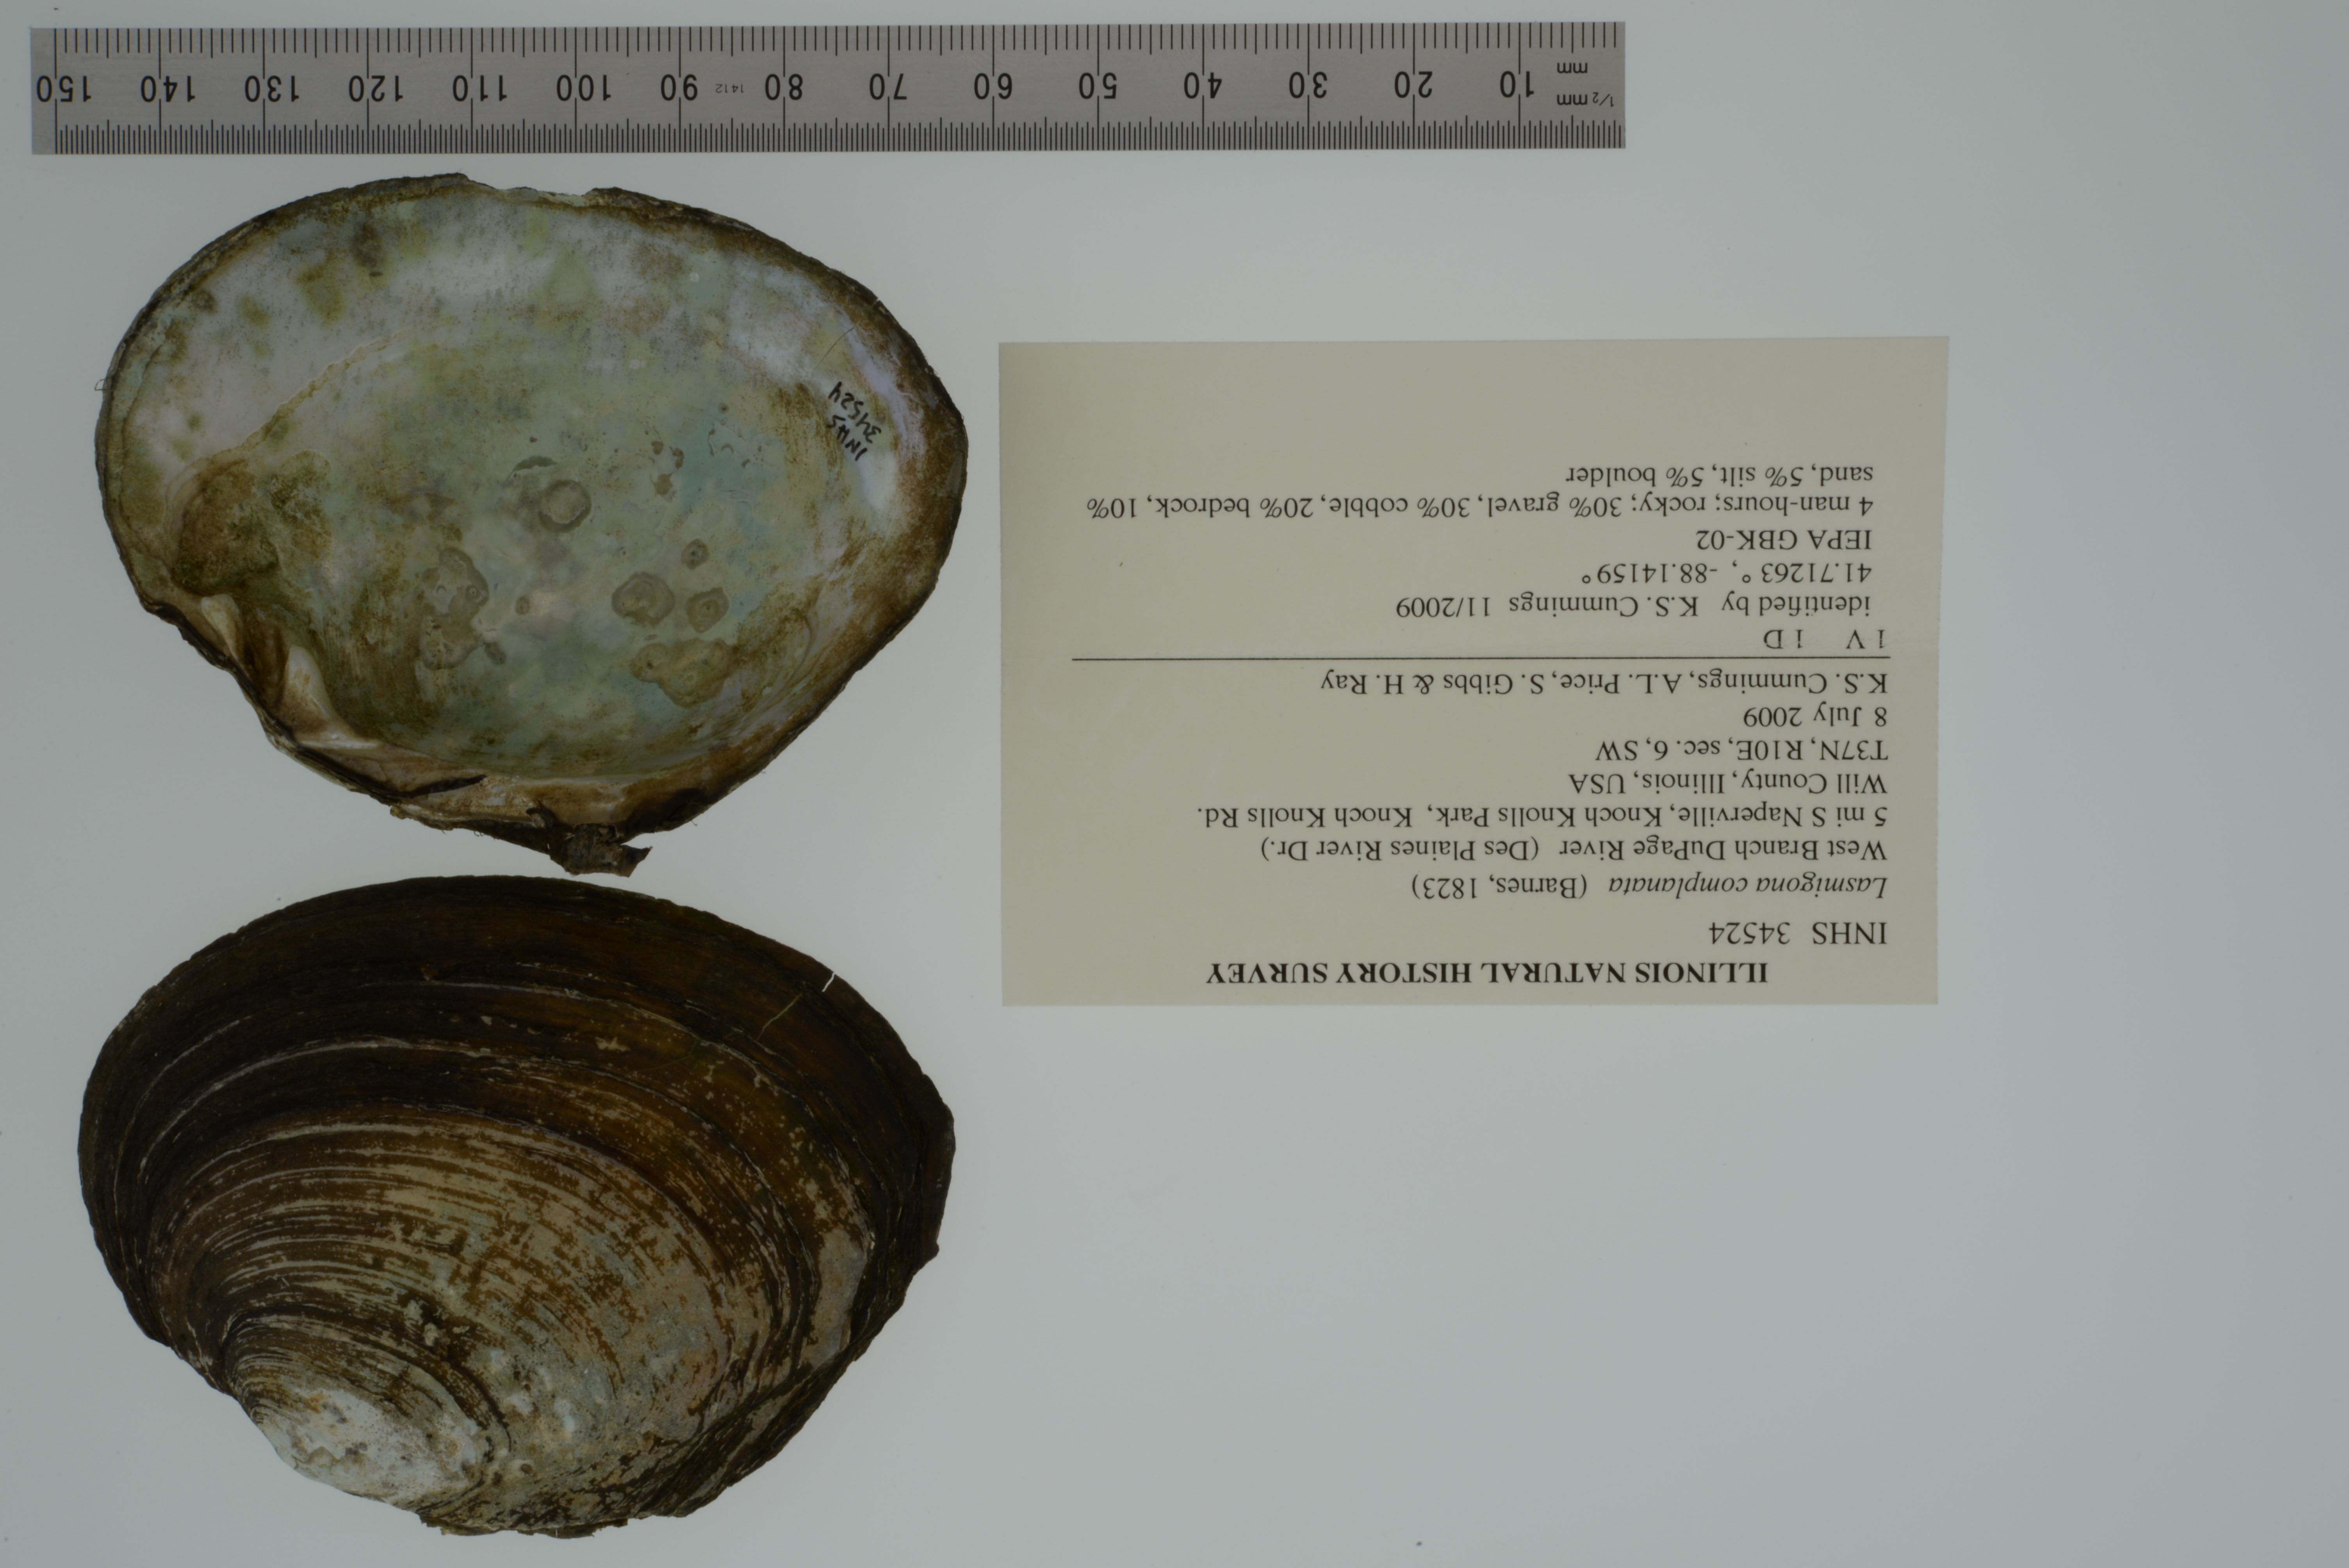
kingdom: Animalia
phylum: Mollusca
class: Bivalvia
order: Unionida
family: Unionidae
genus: Lasmigona
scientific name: Lasmigona complanata
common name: White heelsplitter
